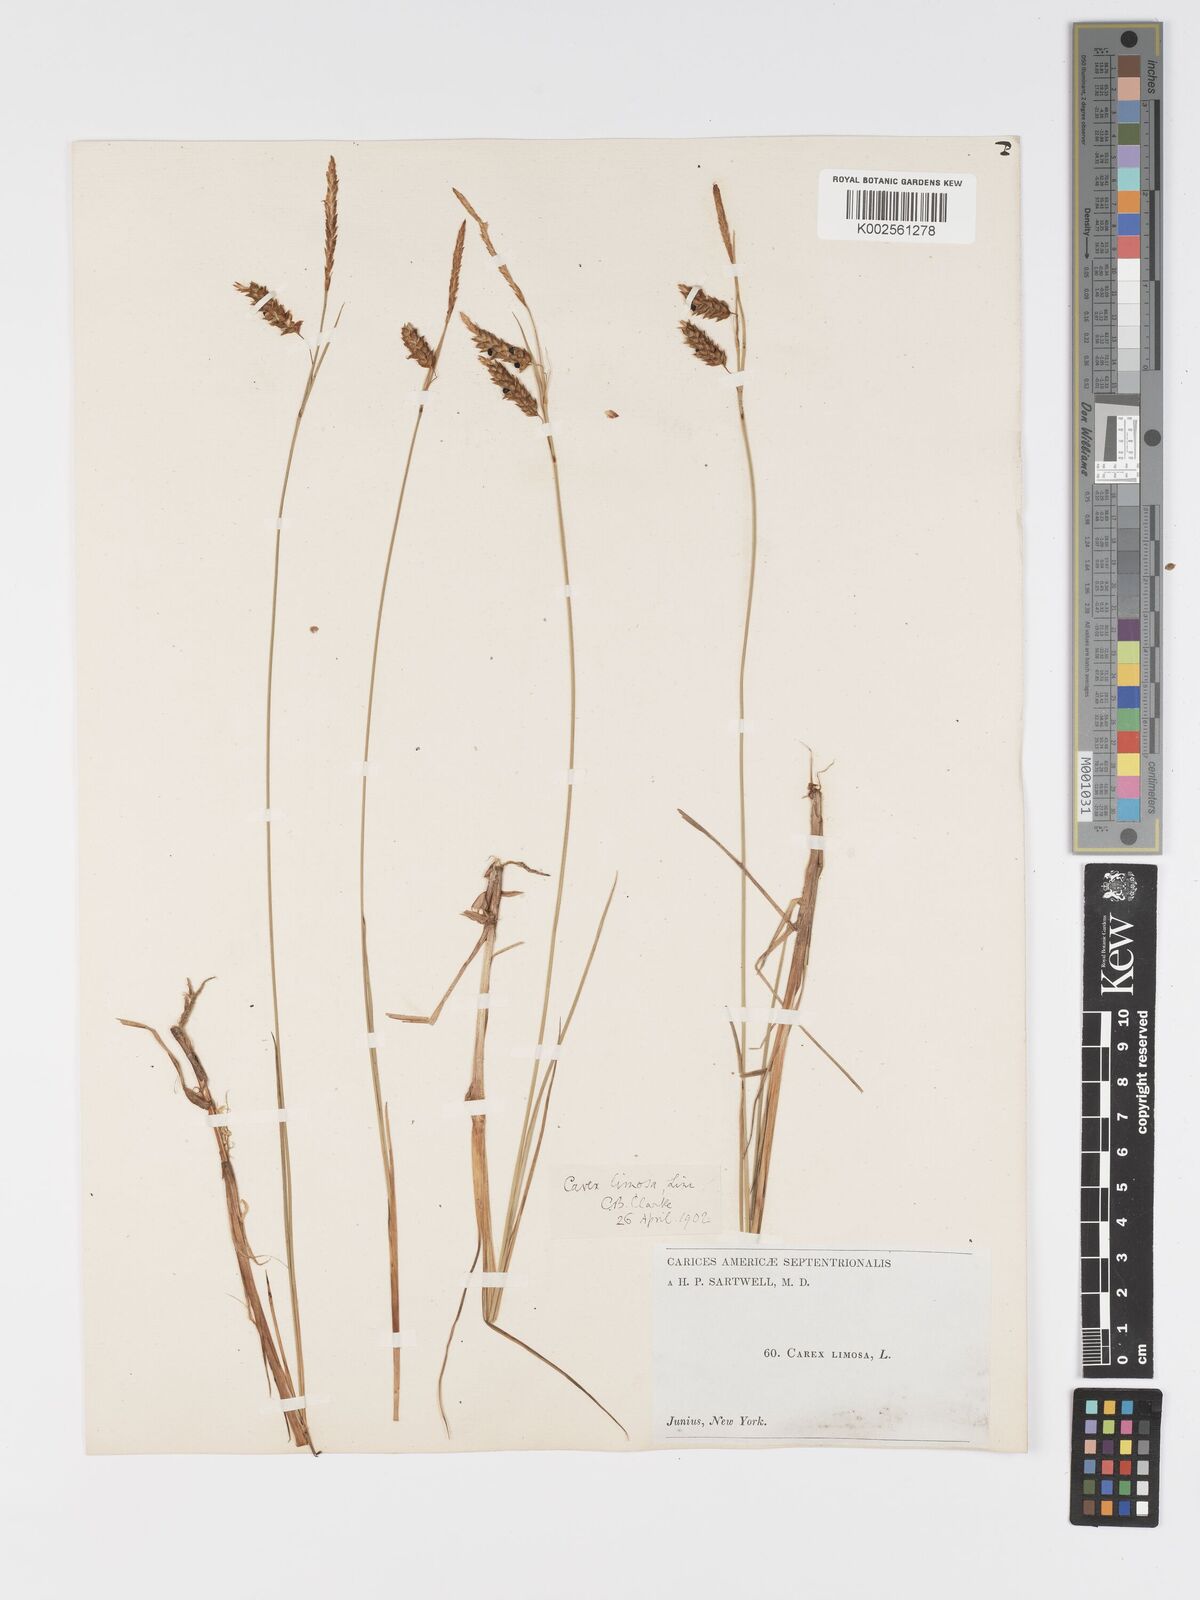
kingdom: Plantae
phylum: Tracheophyta
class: Liliopsida
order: Poales
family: Cyperaceae
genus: Carex
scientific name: Carex limosa
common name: Bog sedge
